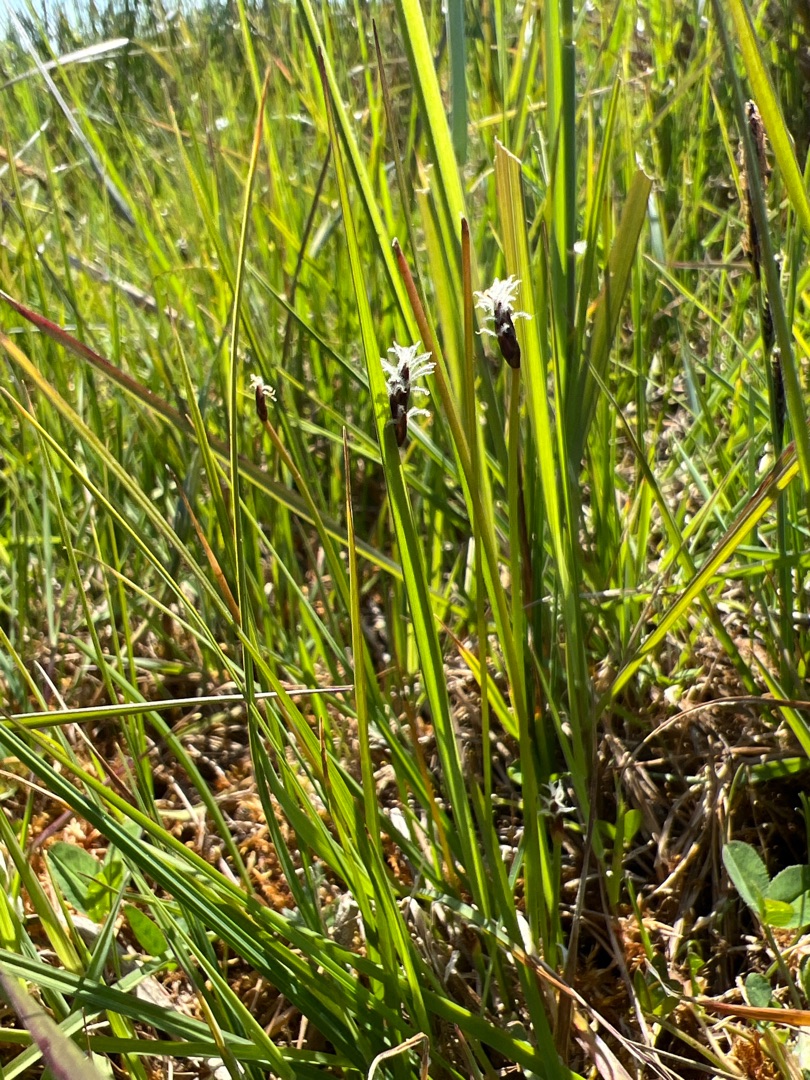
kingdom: Plantae
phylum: Tracheophyta
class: Liliopsida
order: Poales
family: Cyperaceae
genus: Eleocharis
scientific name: Eleocharis uniglumis
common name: Enskællet sumpstrå
